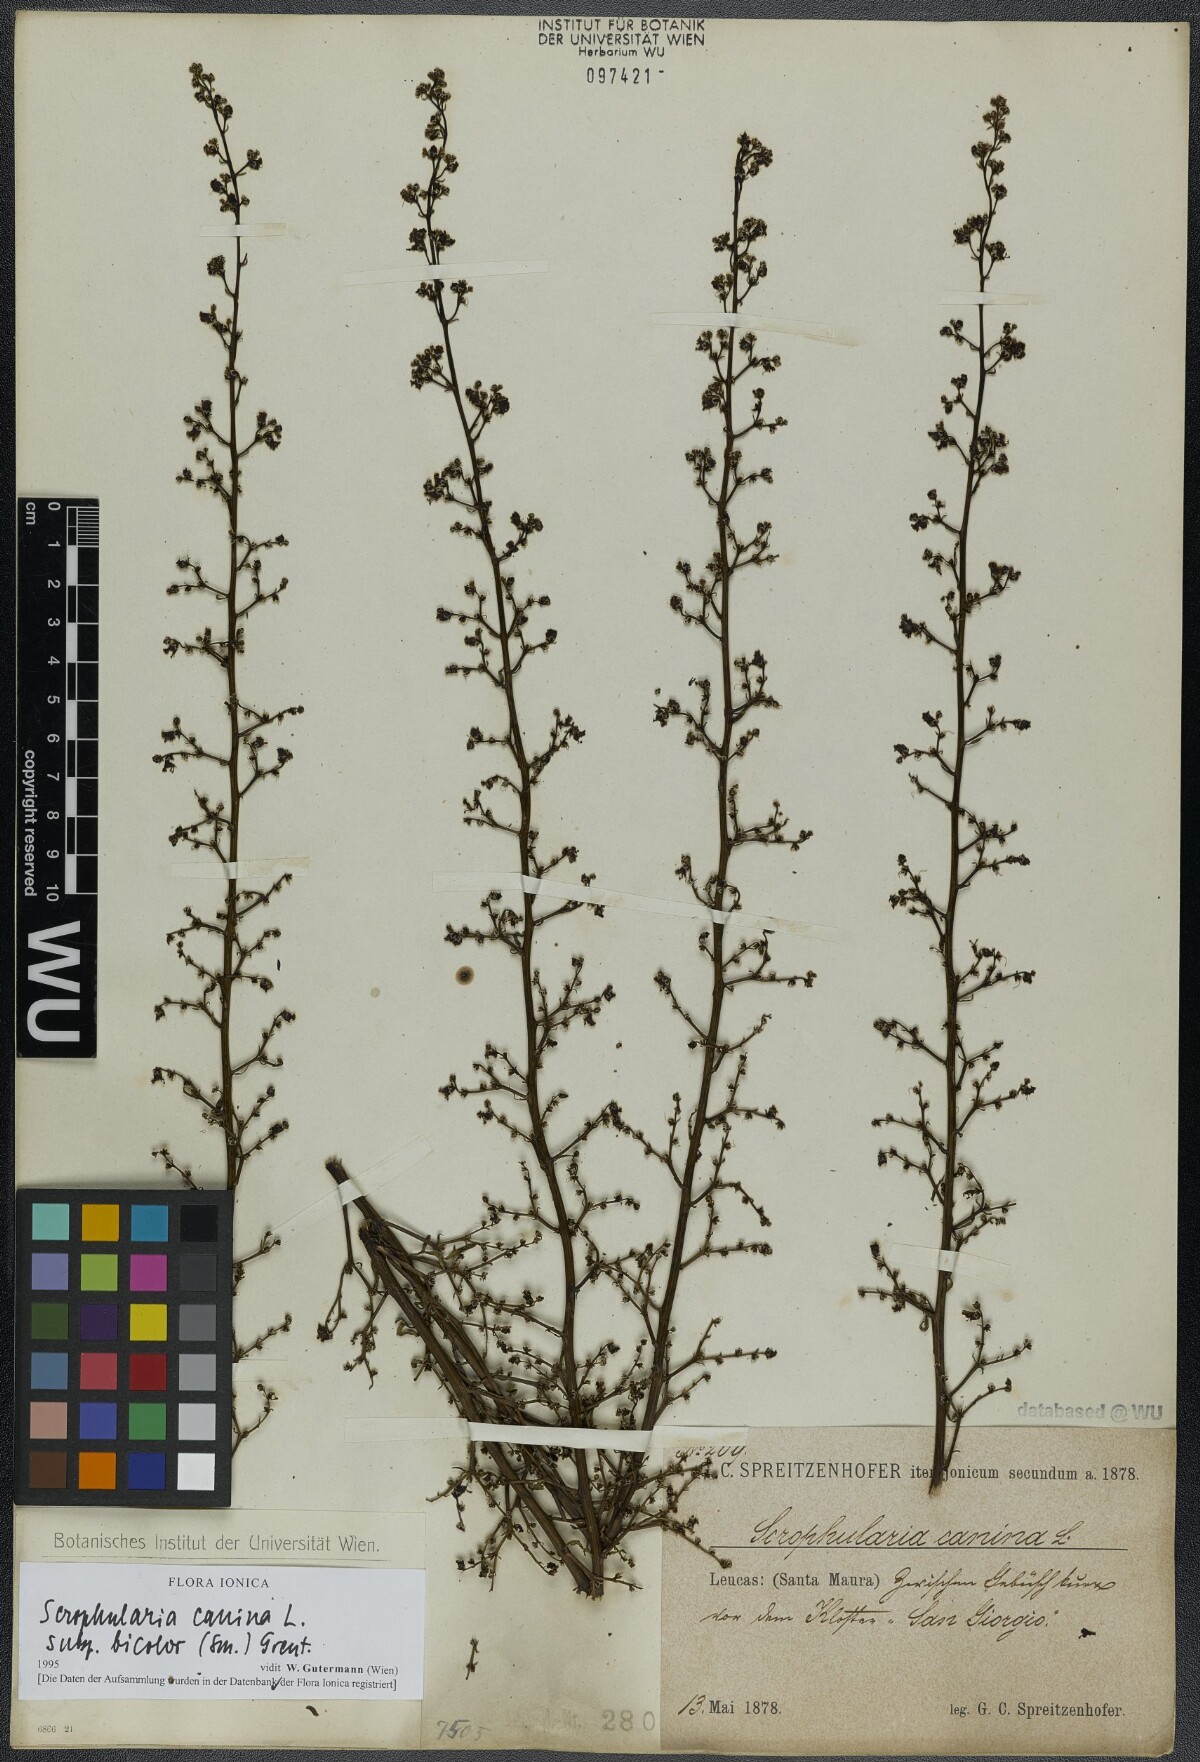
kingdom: Plantae
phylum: Tracheophyta
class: Magnoliopsida
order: Lamiales
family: Scrophulariaceae
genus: Scrophularia
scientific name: Scrophularia canina
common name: French figwort
